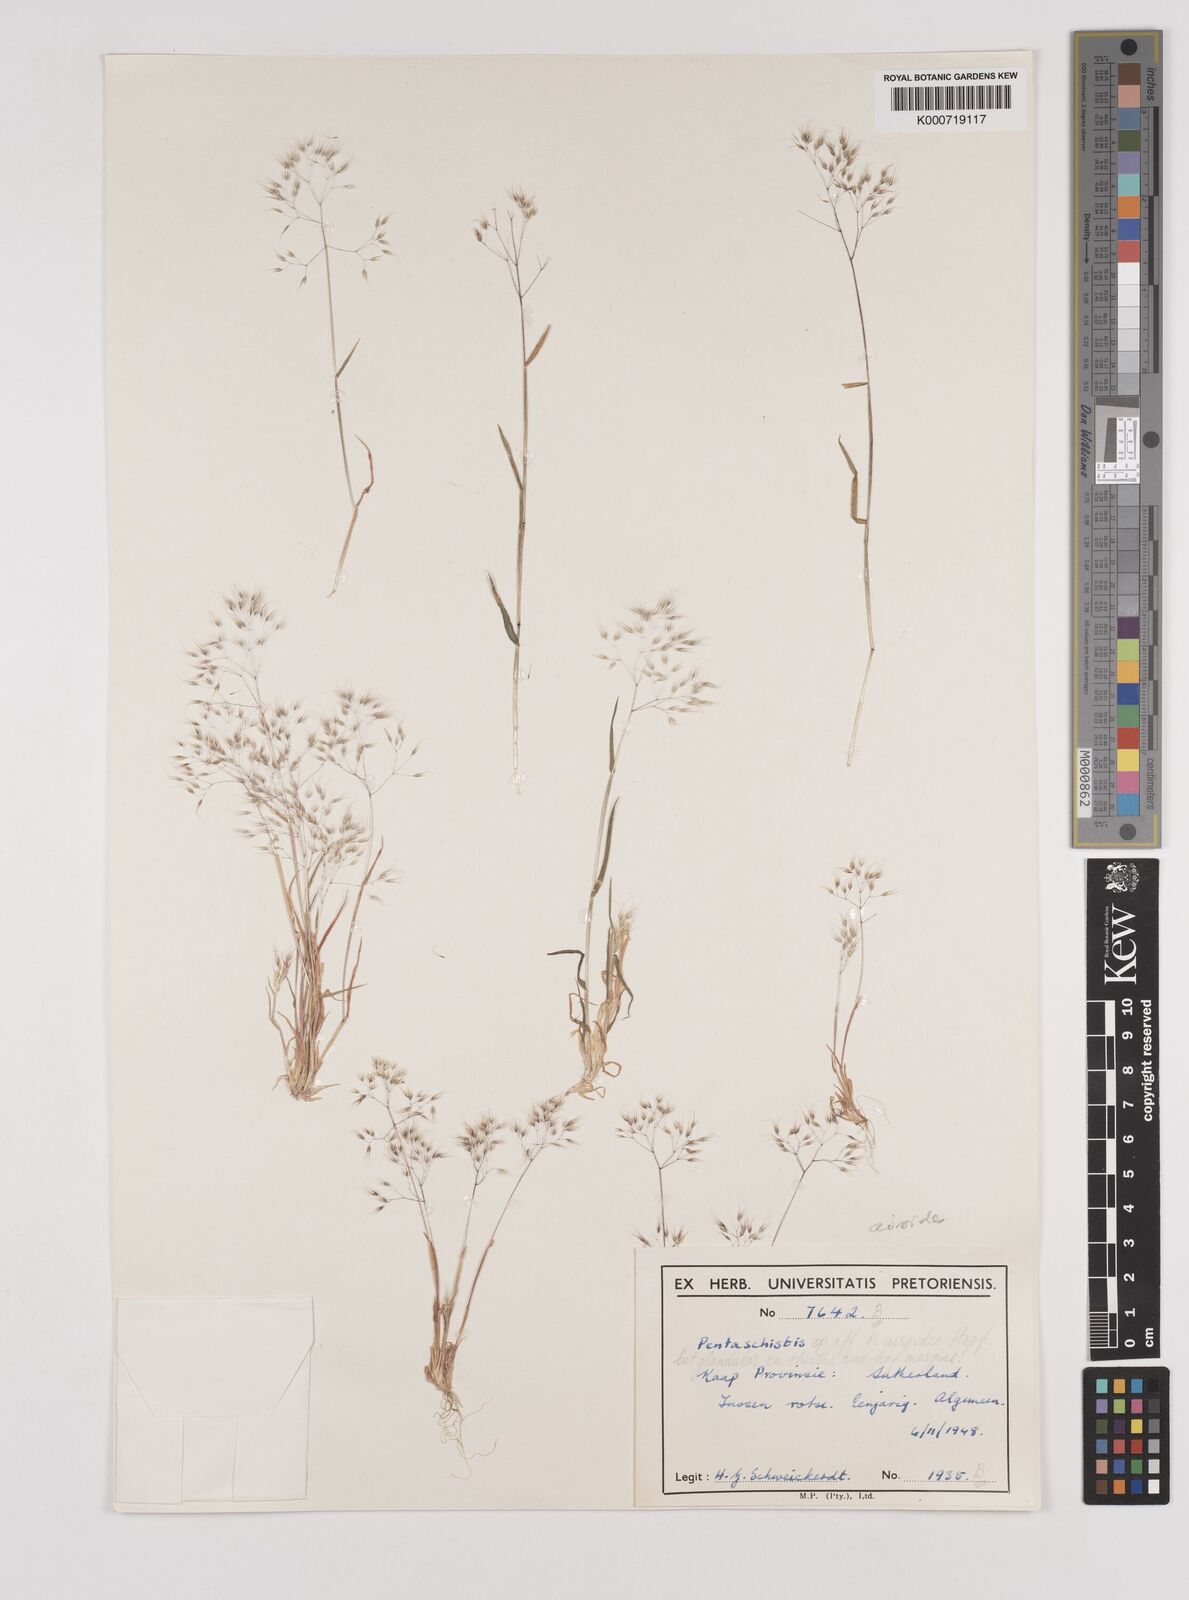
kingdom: Plantae
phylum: Tracheophyta
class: Liliopsida
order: Poales
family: Poaceae
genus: Pentameris
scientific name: Pentameris airoides
